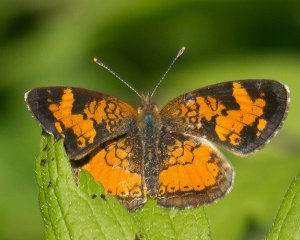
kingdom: Animalia
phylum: Arthropoda
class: Insecta
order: Lepidoptera
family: Nymphalidae
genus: Phyciodes
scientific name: Phyciodes tharos
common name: Northern Crescent
